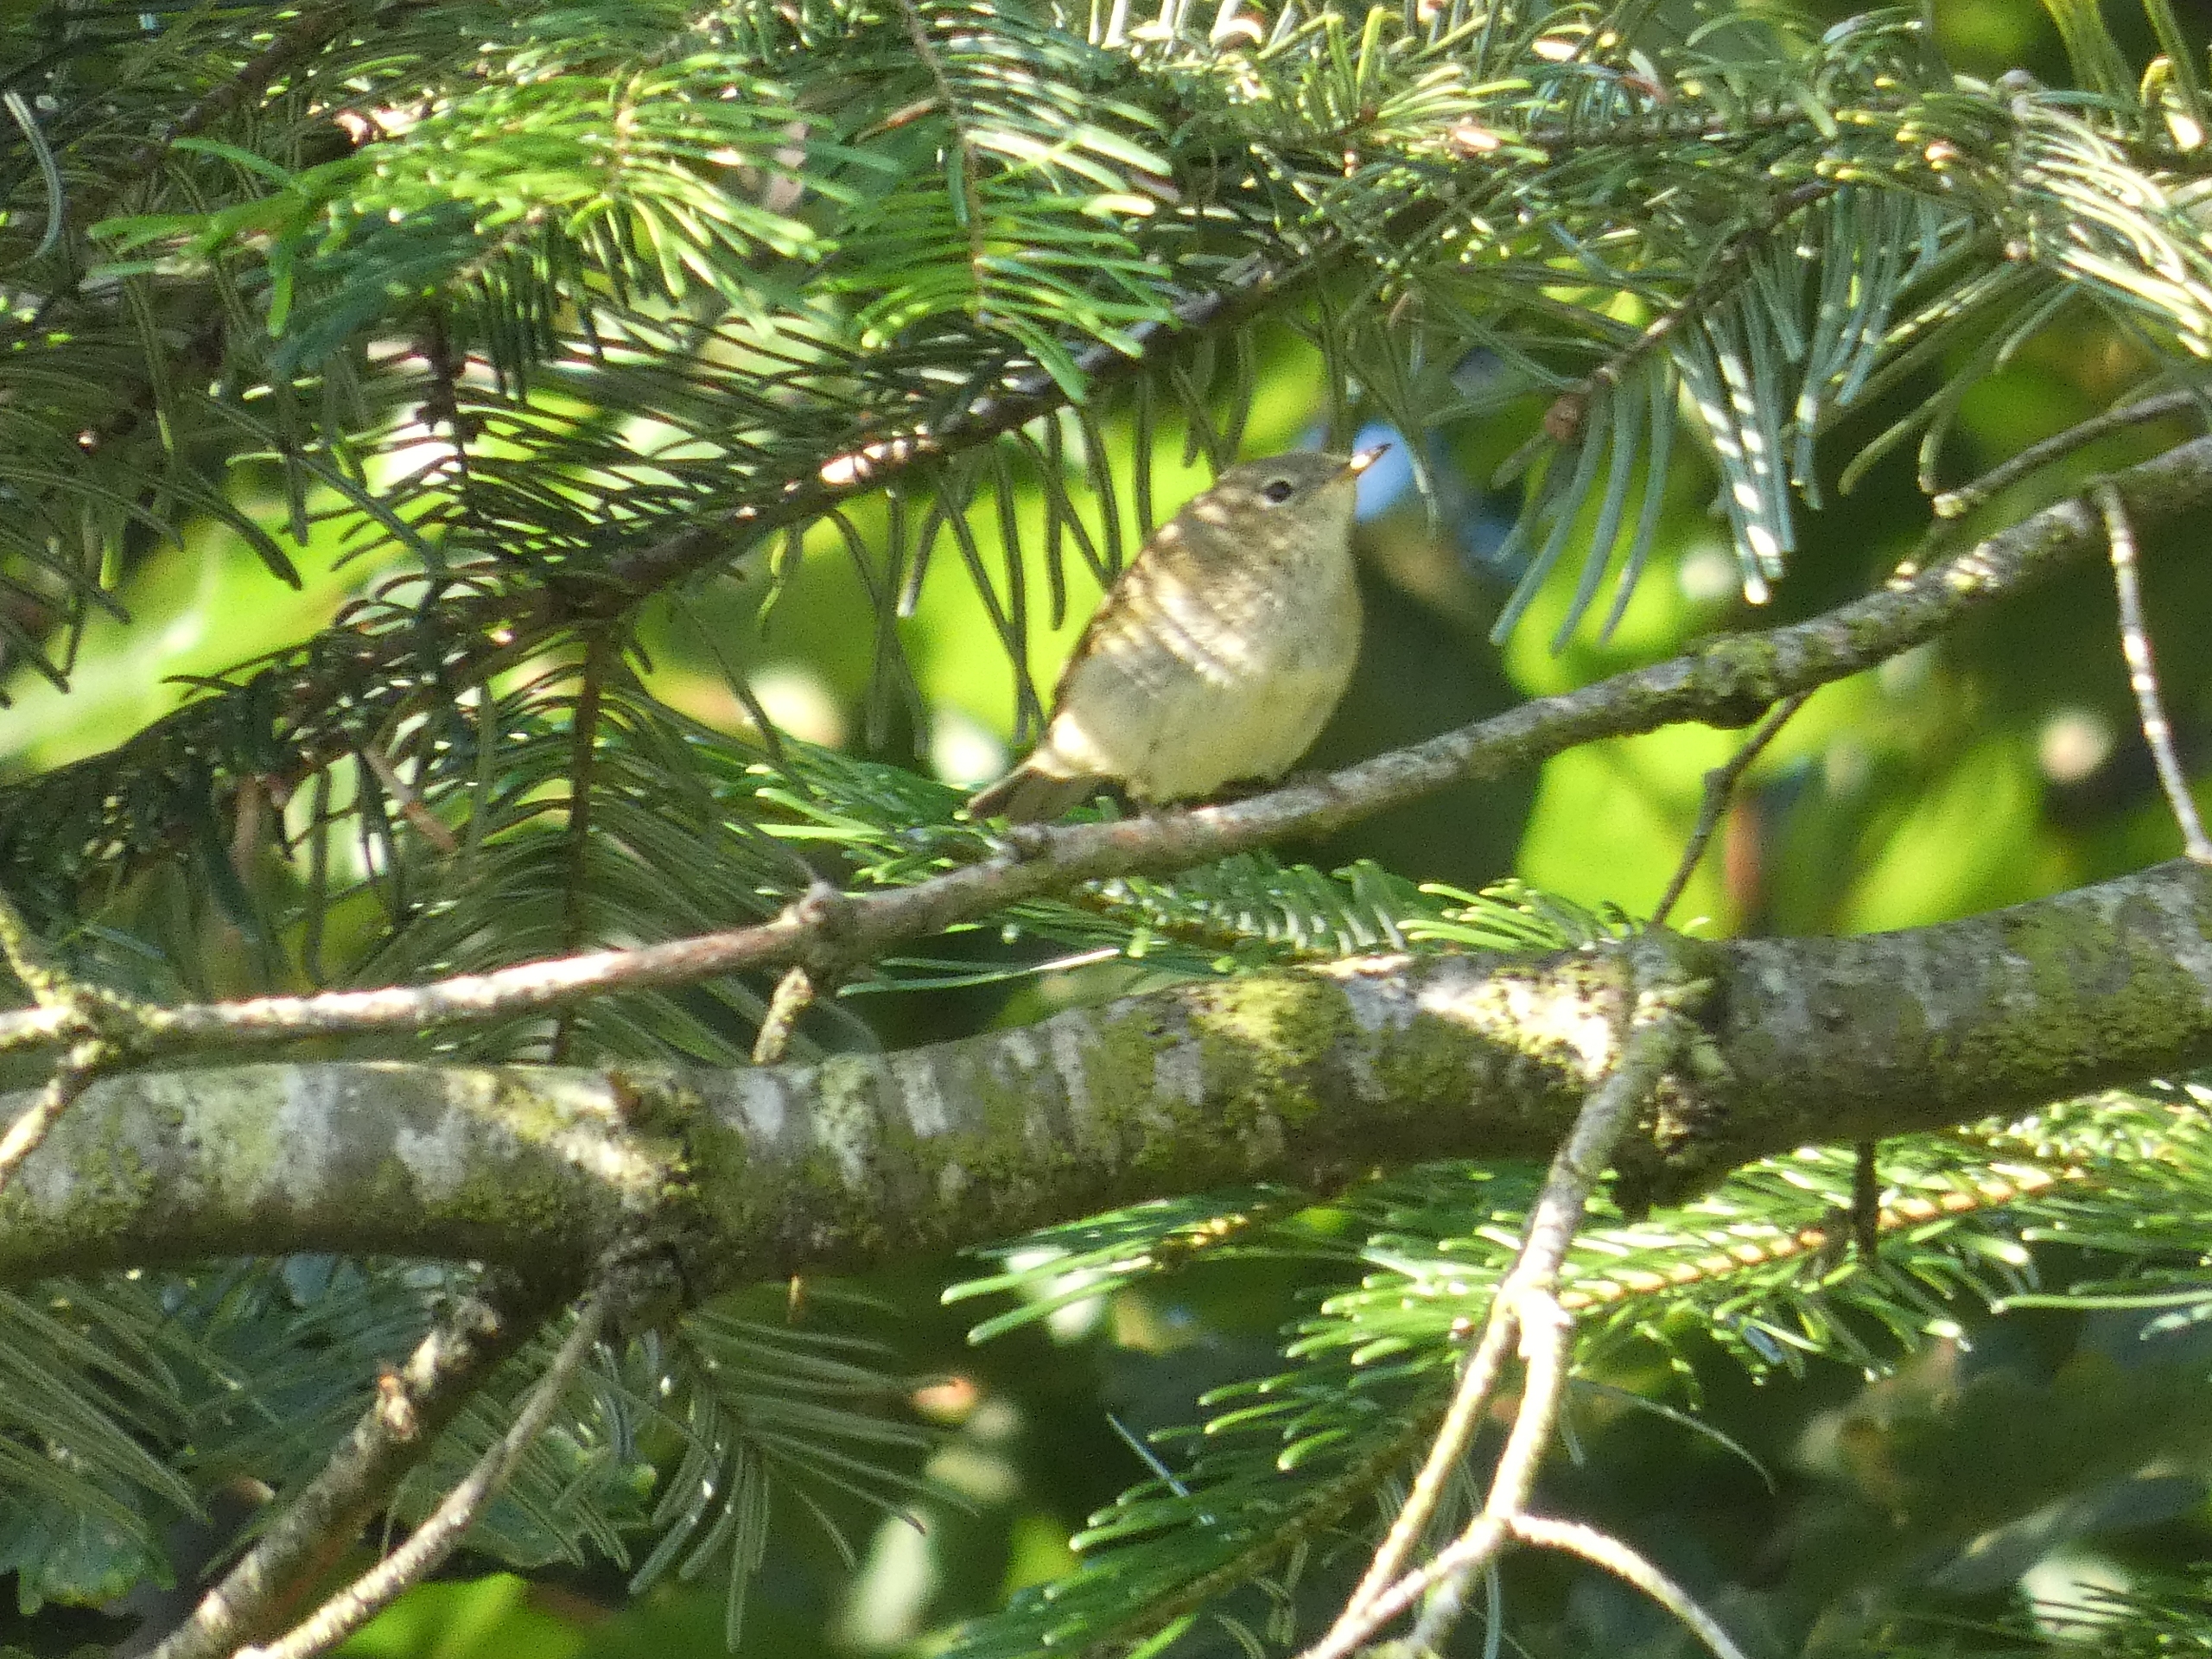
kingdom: Animalia
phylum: Chordata
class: Aves
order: Passeriformes
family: Phylloscopidae
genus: Phylloscopus
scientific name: Phylloscopus collybita
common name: Gransanger
